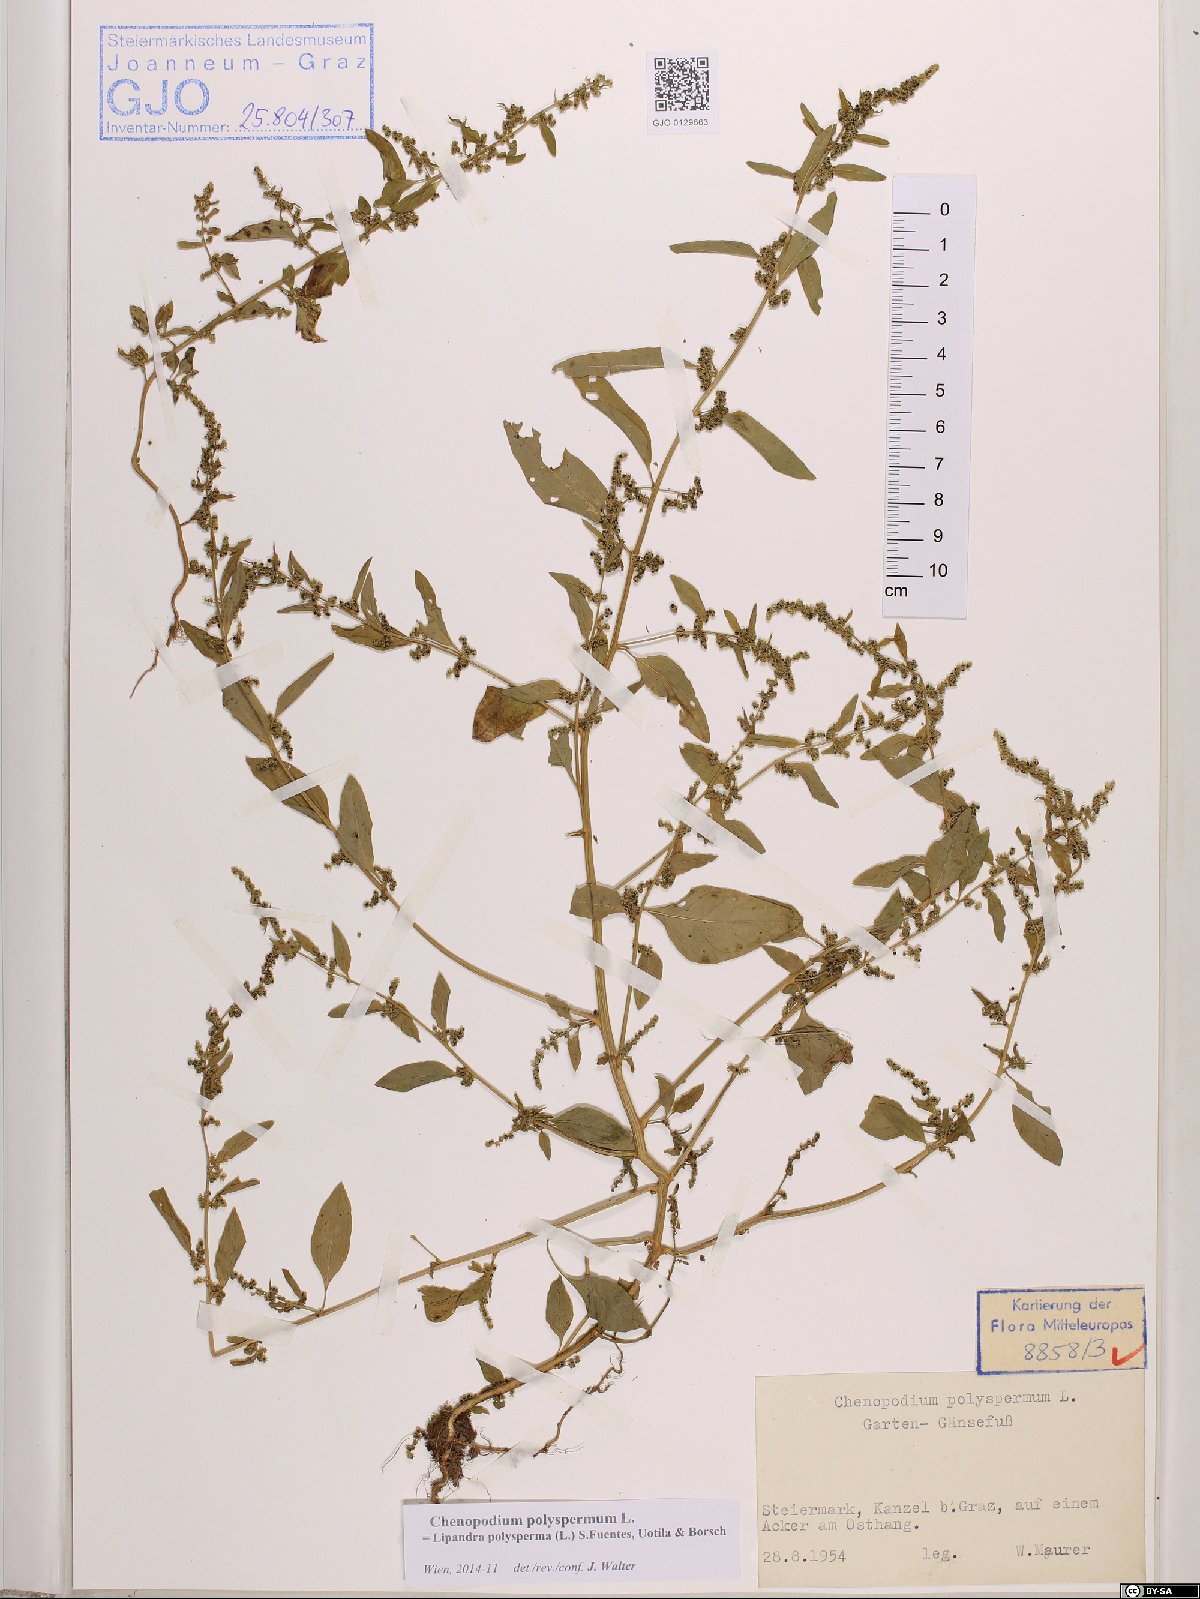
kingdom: Plantae
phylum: Tracheophyta
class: Magnoliopsida
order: Caryophyllales
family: Amaranthaceae
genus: Lipandra
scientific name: Lipandra polysperma
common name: Many-seed goosefoot
